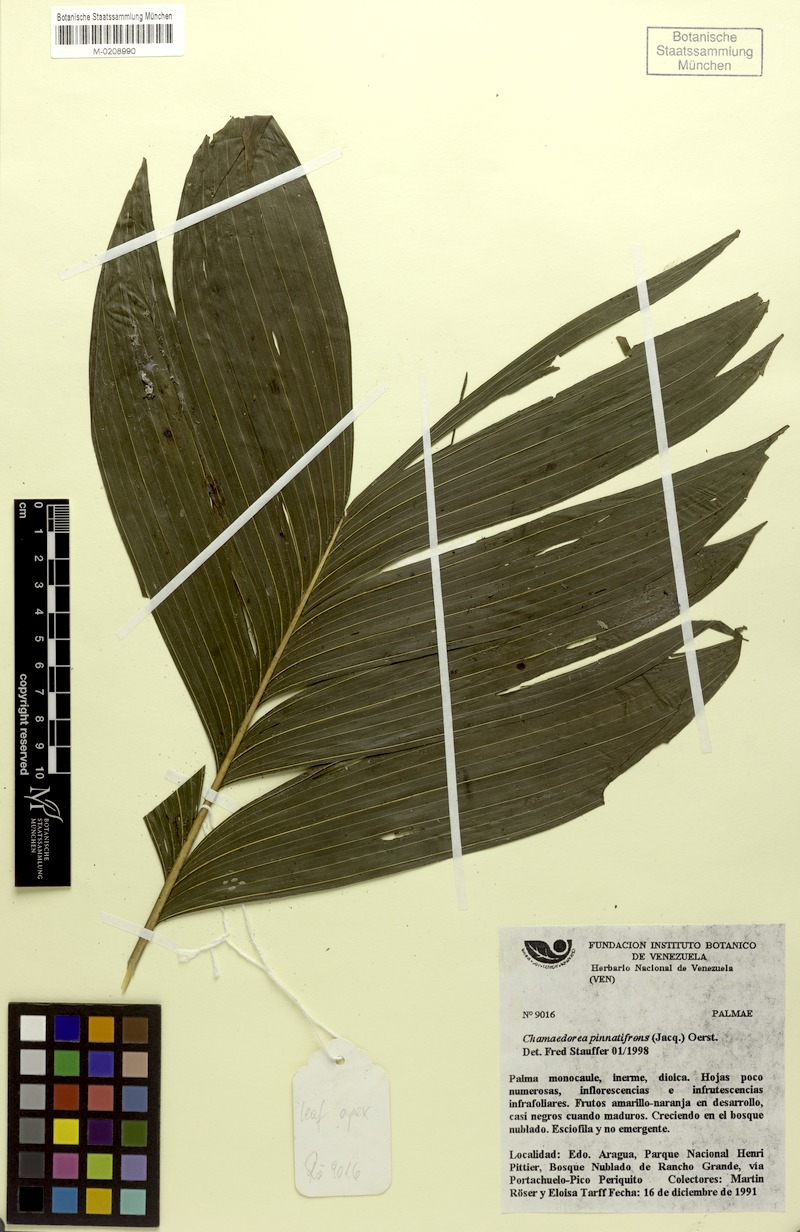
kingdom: Plantae
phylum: Tracheophyta
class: Liliopsida
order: Arecales
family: Arecaceae
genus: Chamaedorea
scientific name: Chamaedorea pinnatifrons
